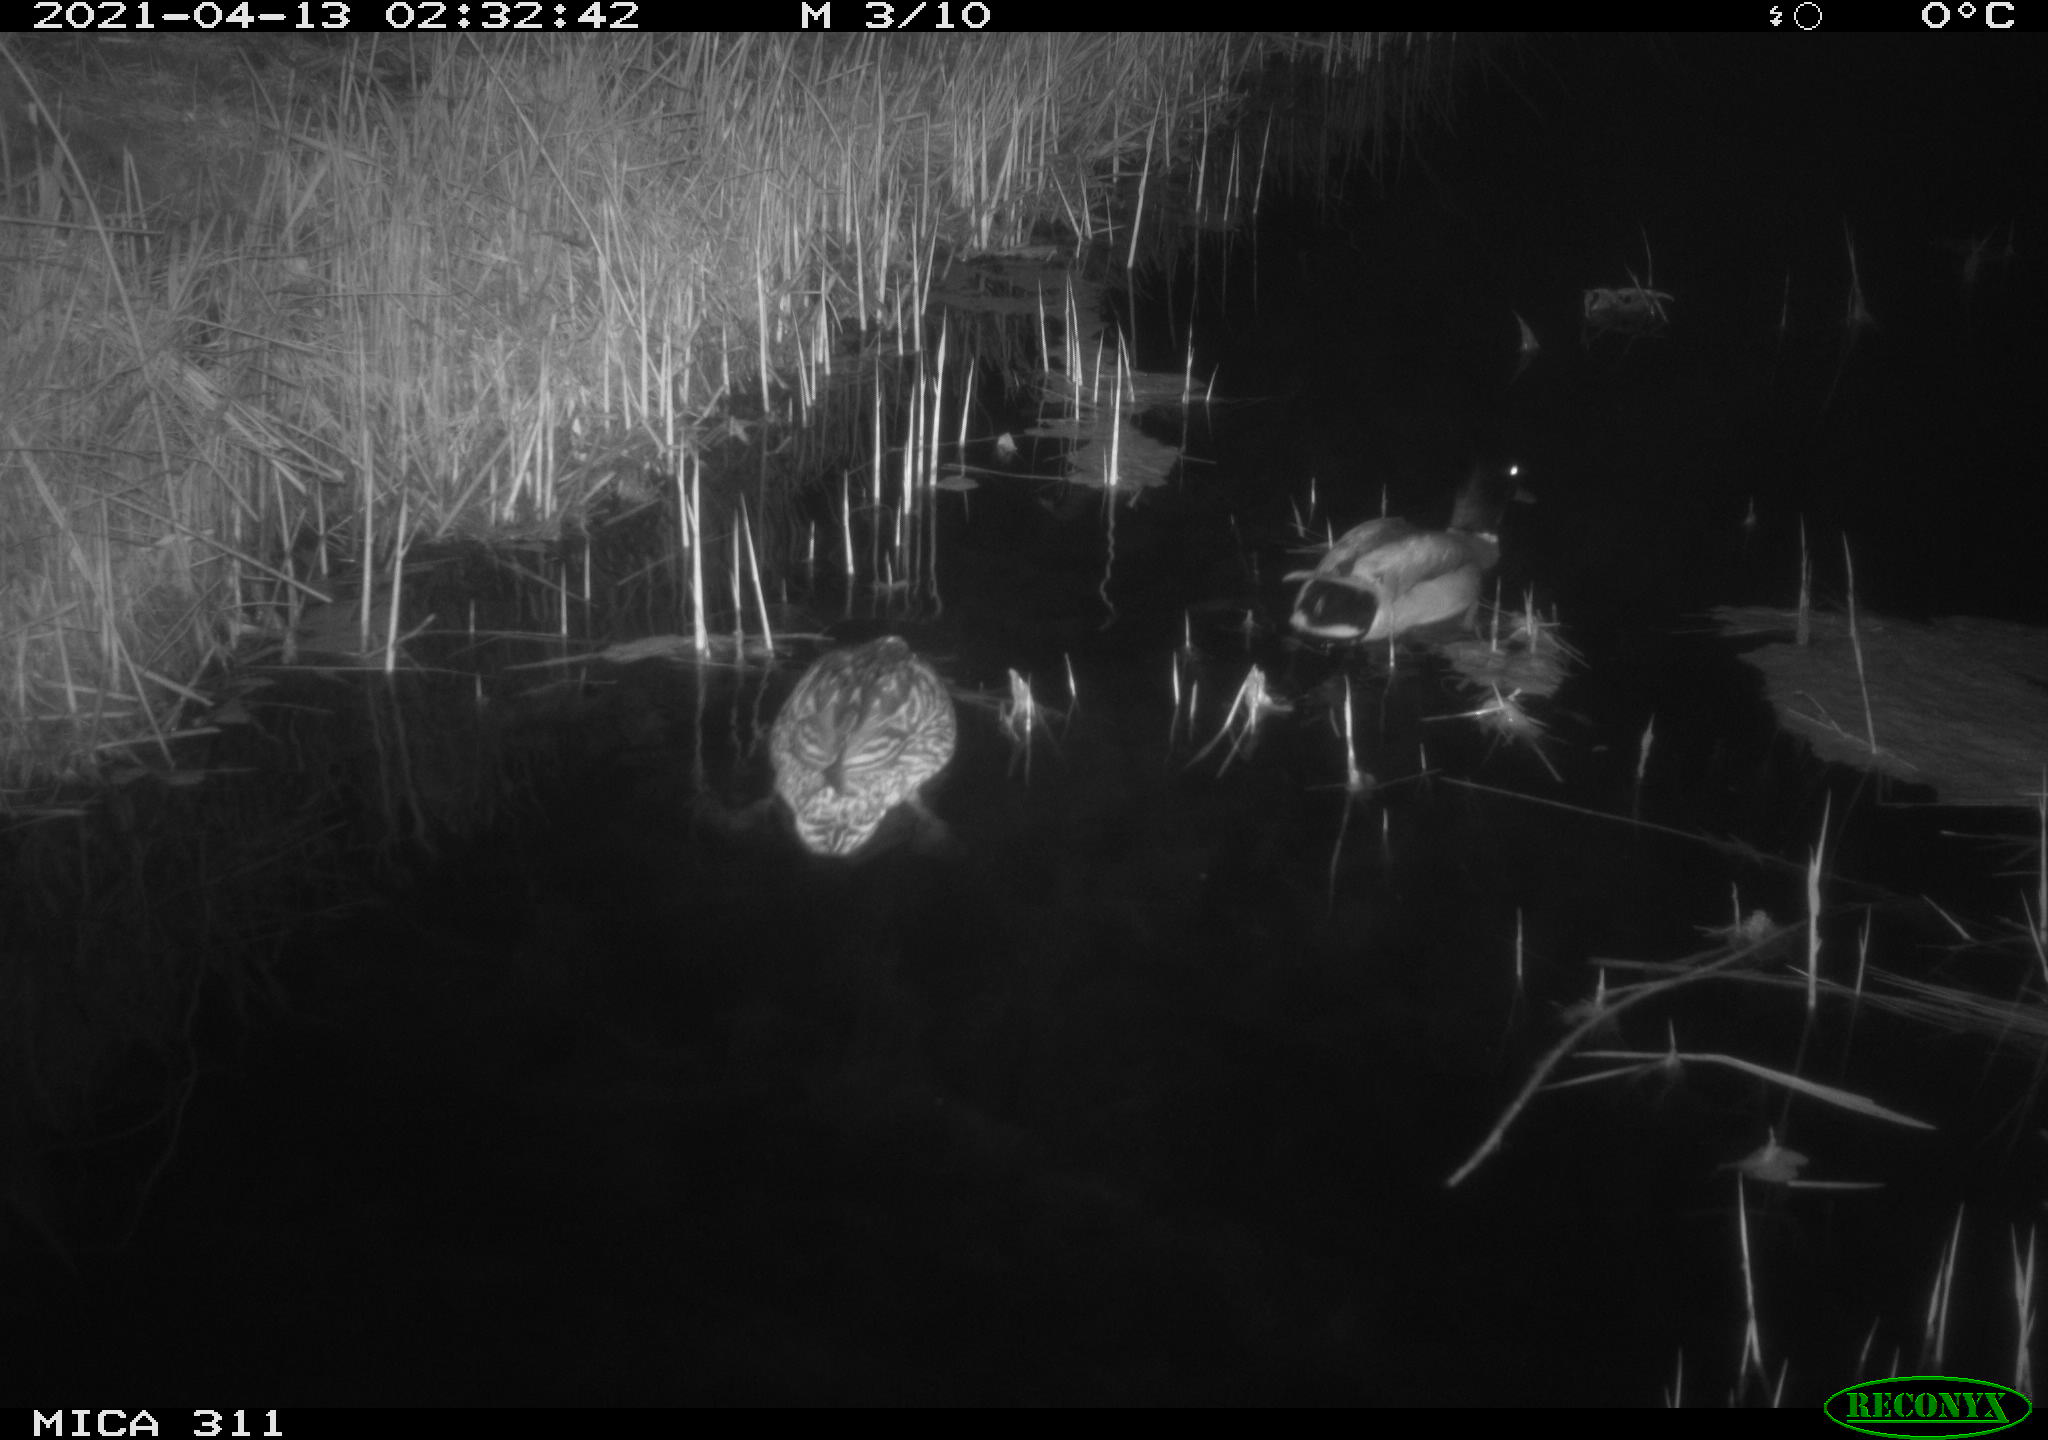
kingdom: Animalia
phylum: Chordata
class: Aves
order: Anseriformes
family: Anatidae
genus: Anas
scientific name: Anas platyrhynchos
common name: Mallard
